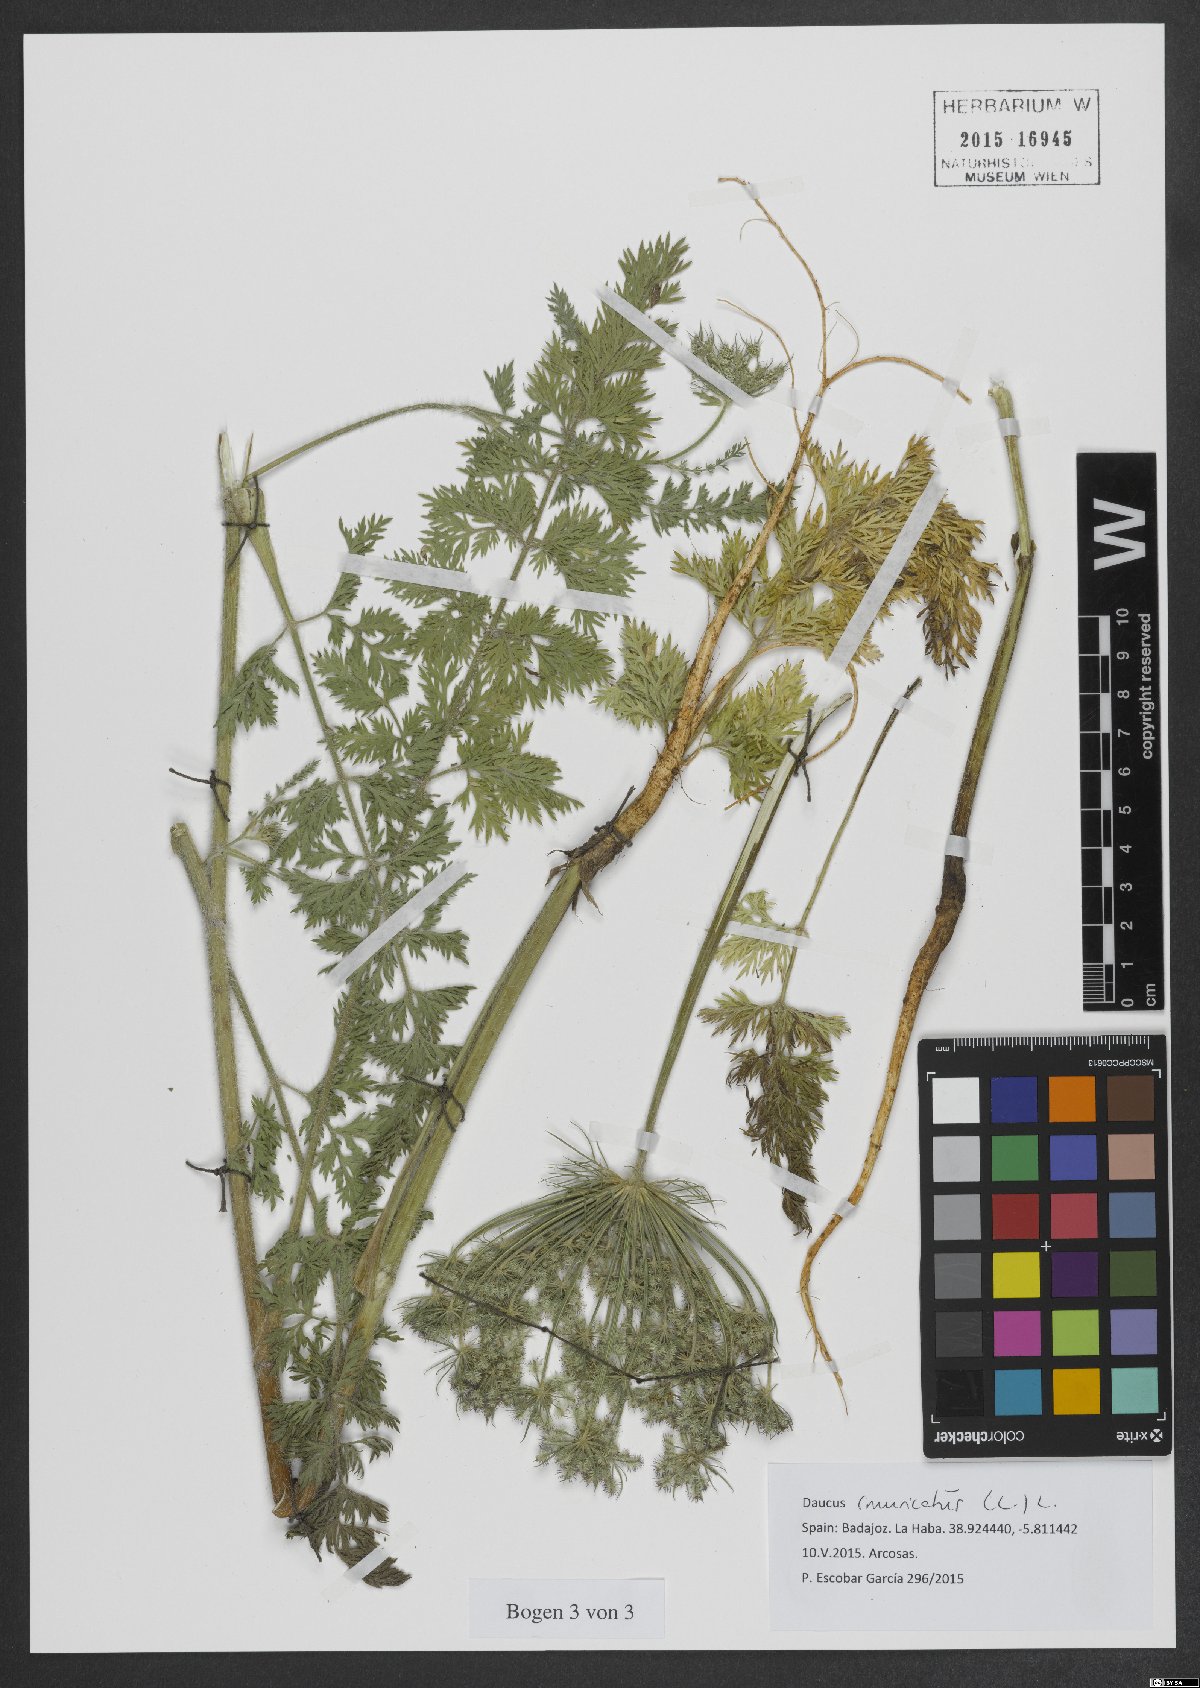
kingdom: Plantae
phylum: Tracheophyta
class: Magnoliopsida
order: Apiales
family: Apiaceae
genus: Daucus
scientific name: Daucus muricatus
